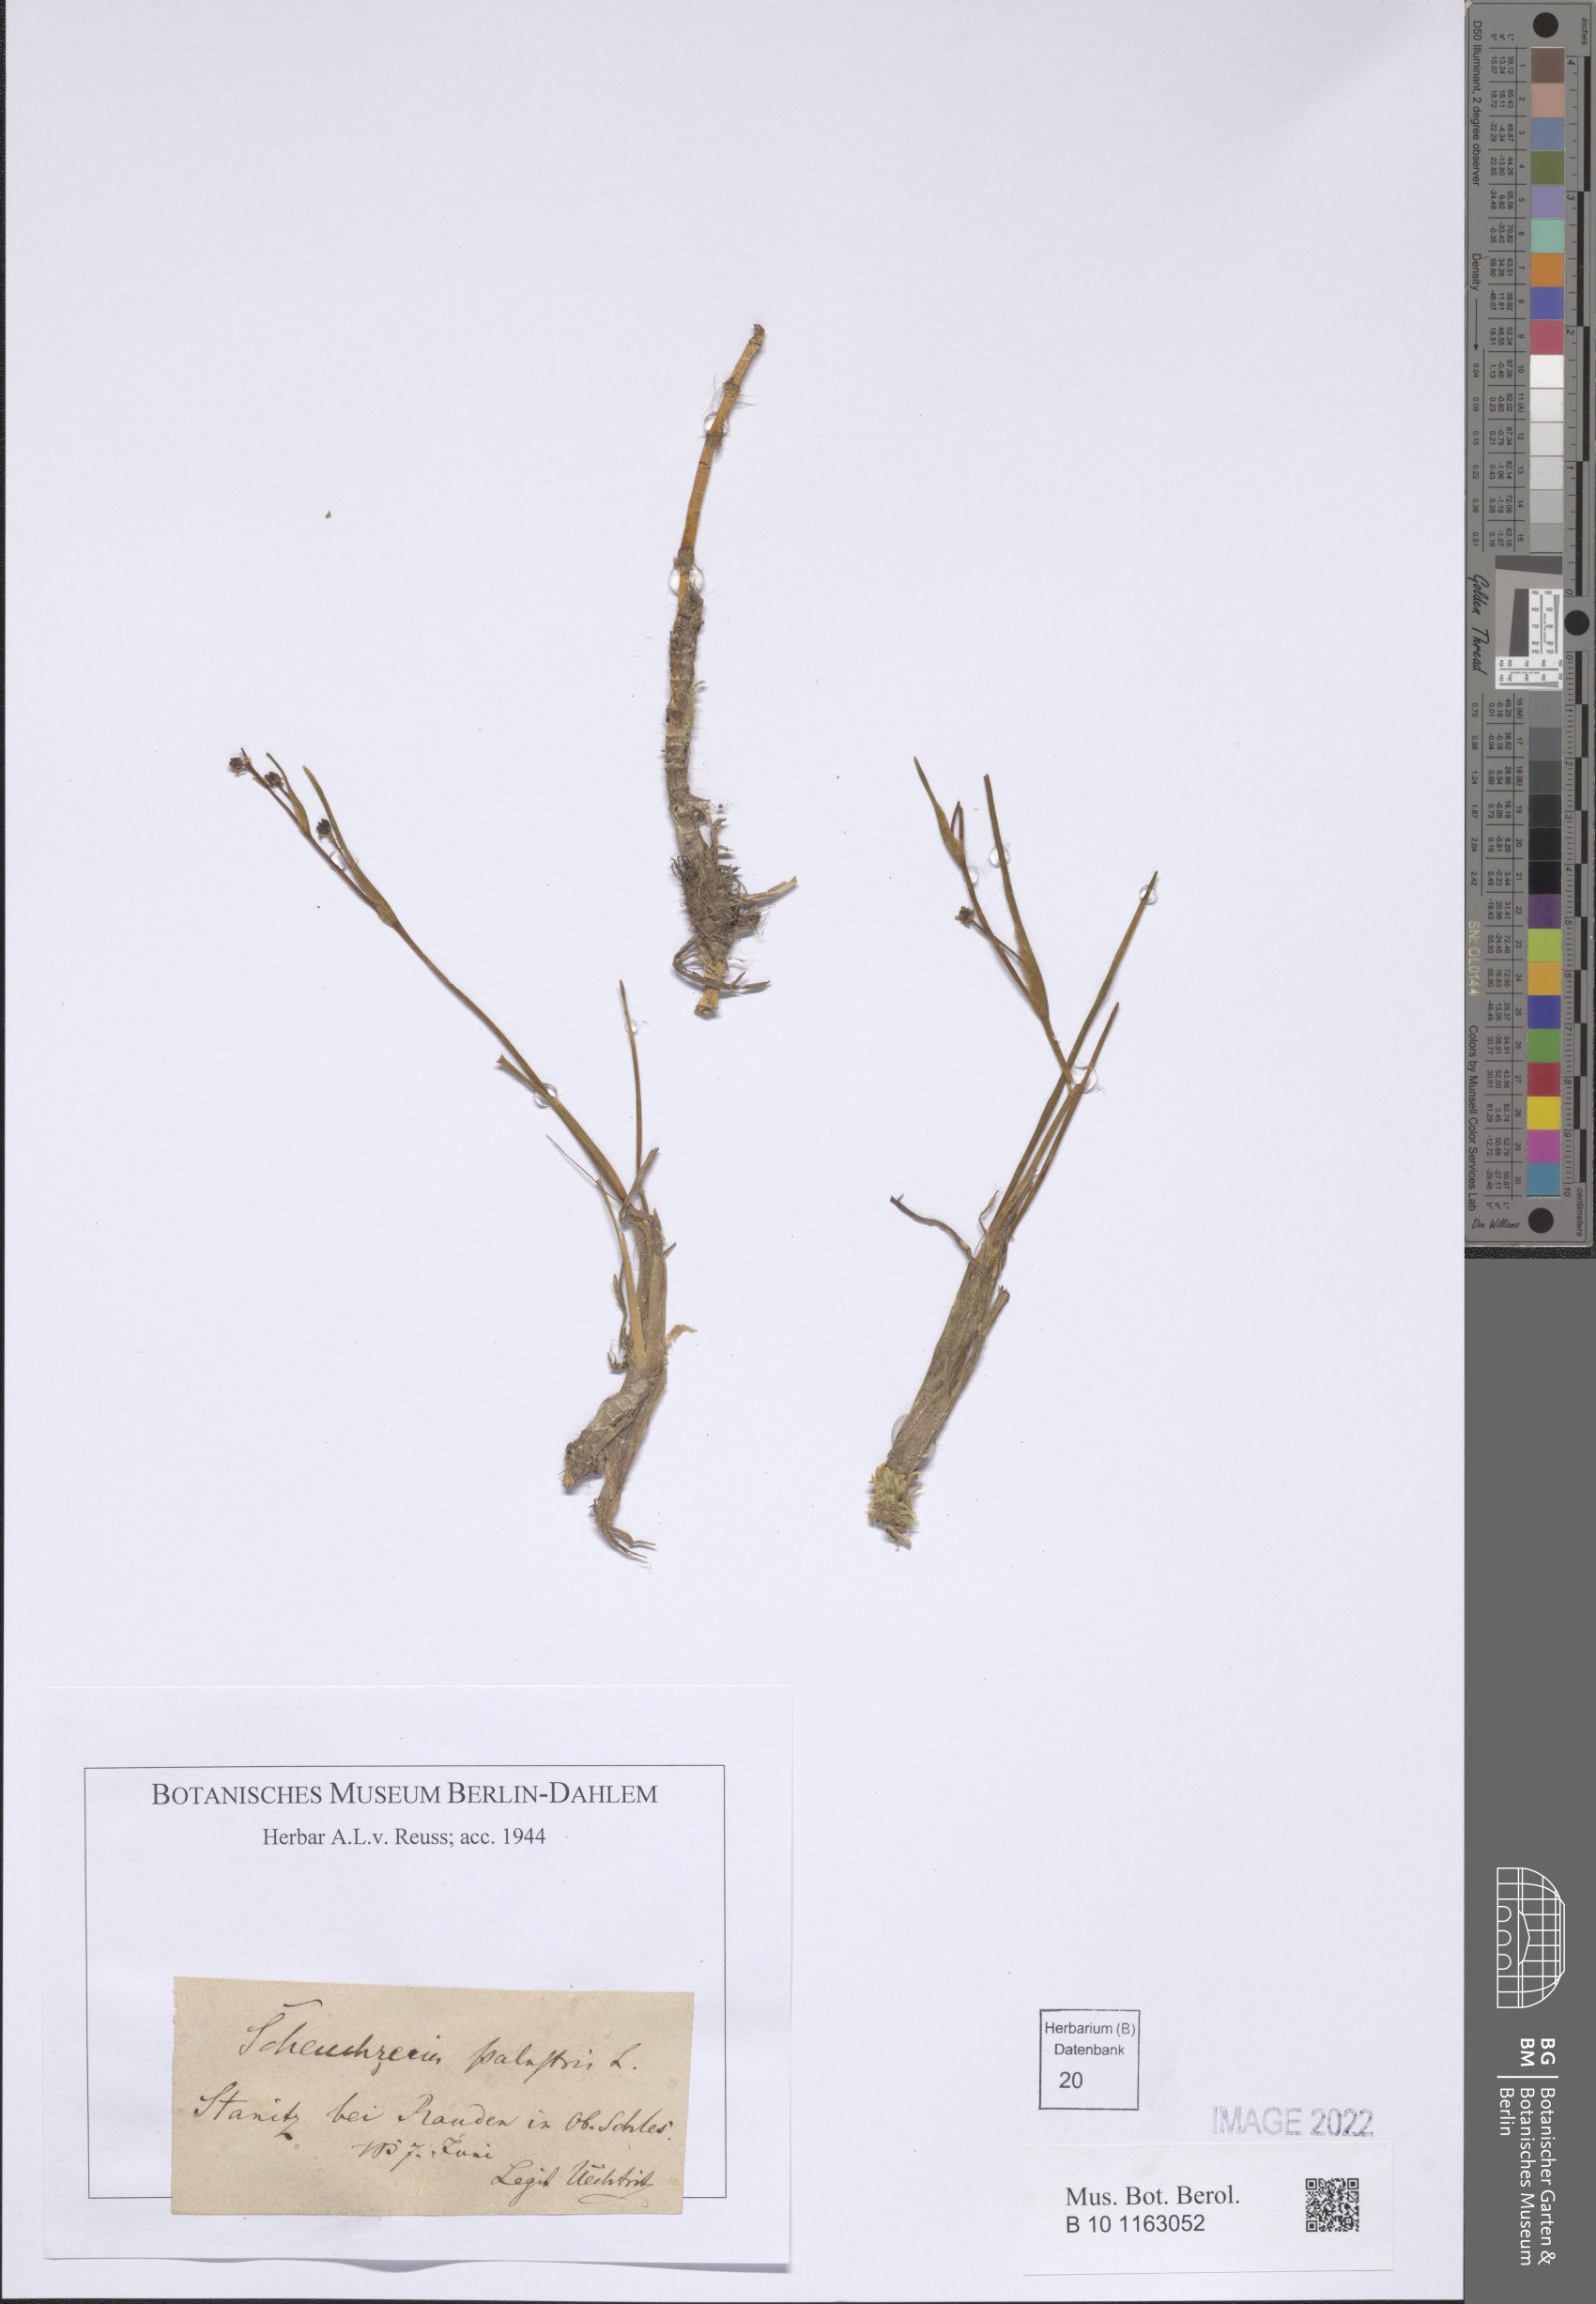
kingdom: Plantae
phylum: Tracheophyta
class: Liliopsida
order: Alismatales
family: Scheuchzeriaceae
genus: Scheuchzeria
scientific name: Scheuchzeria palustris
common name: Rannoch-rush
